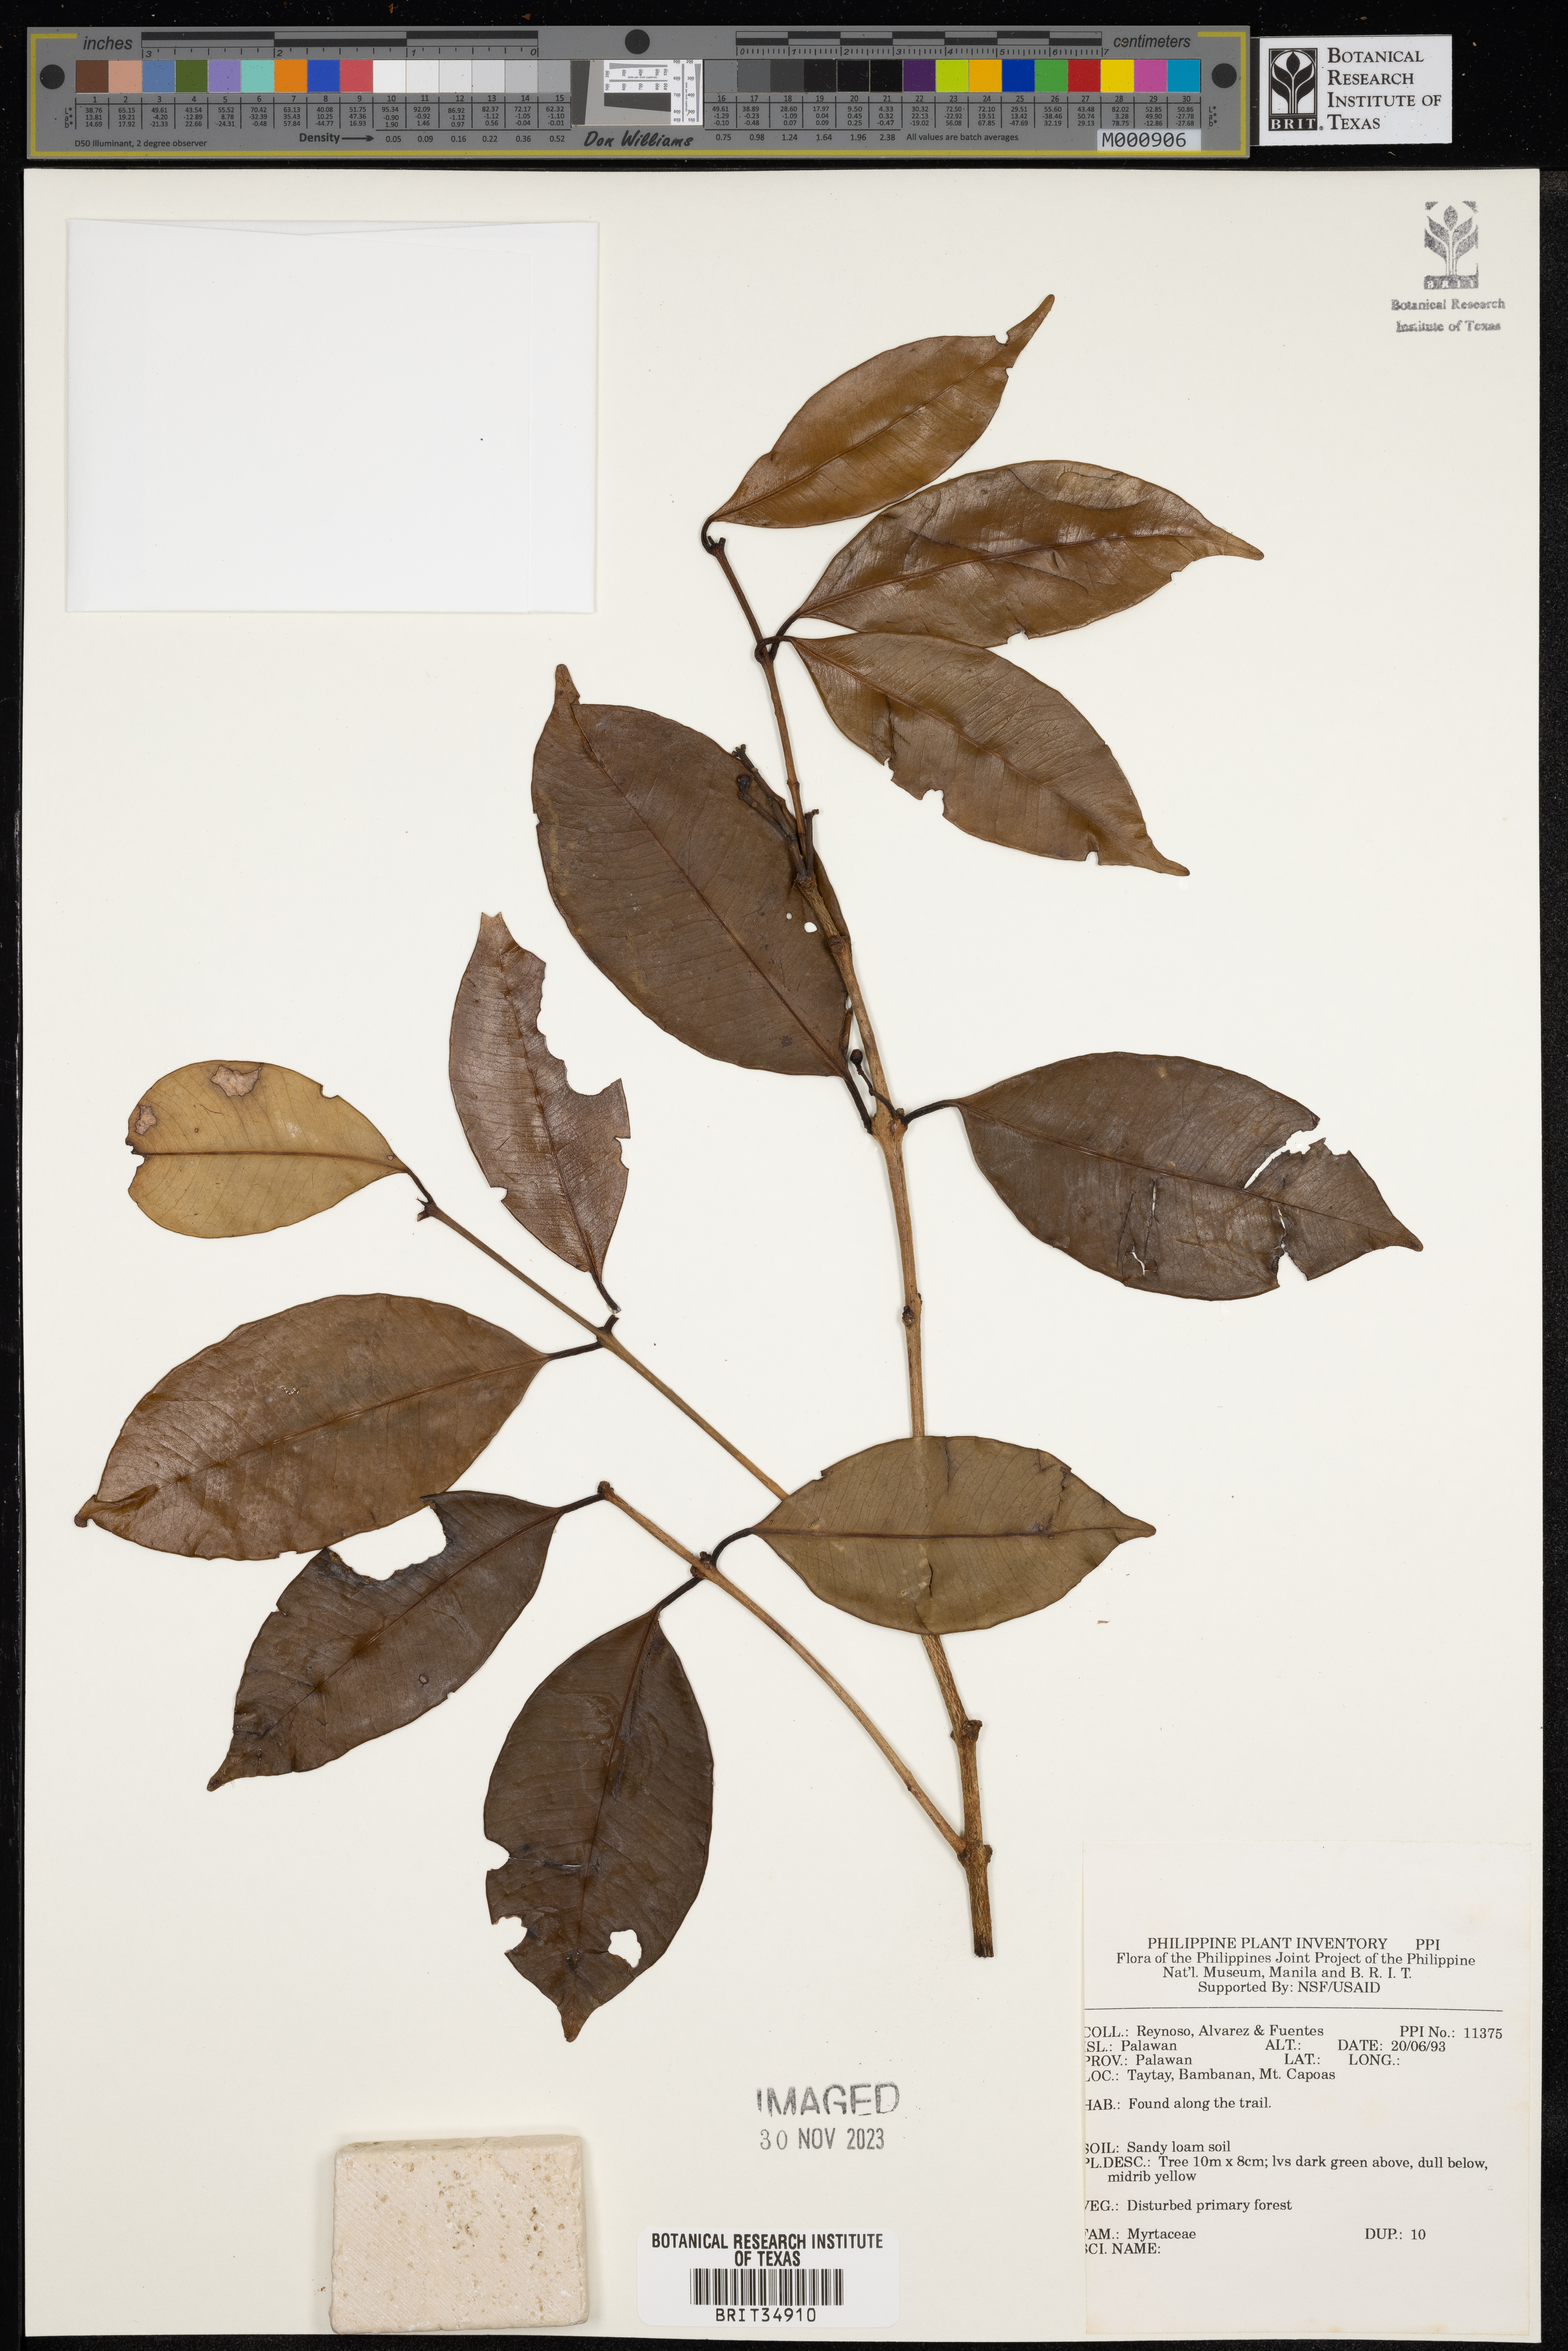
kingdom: Plantae
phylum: Tracheophyta
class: Magnoliopsida
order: Myrtales
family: Myrtaceae
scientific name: Myrtaceae
